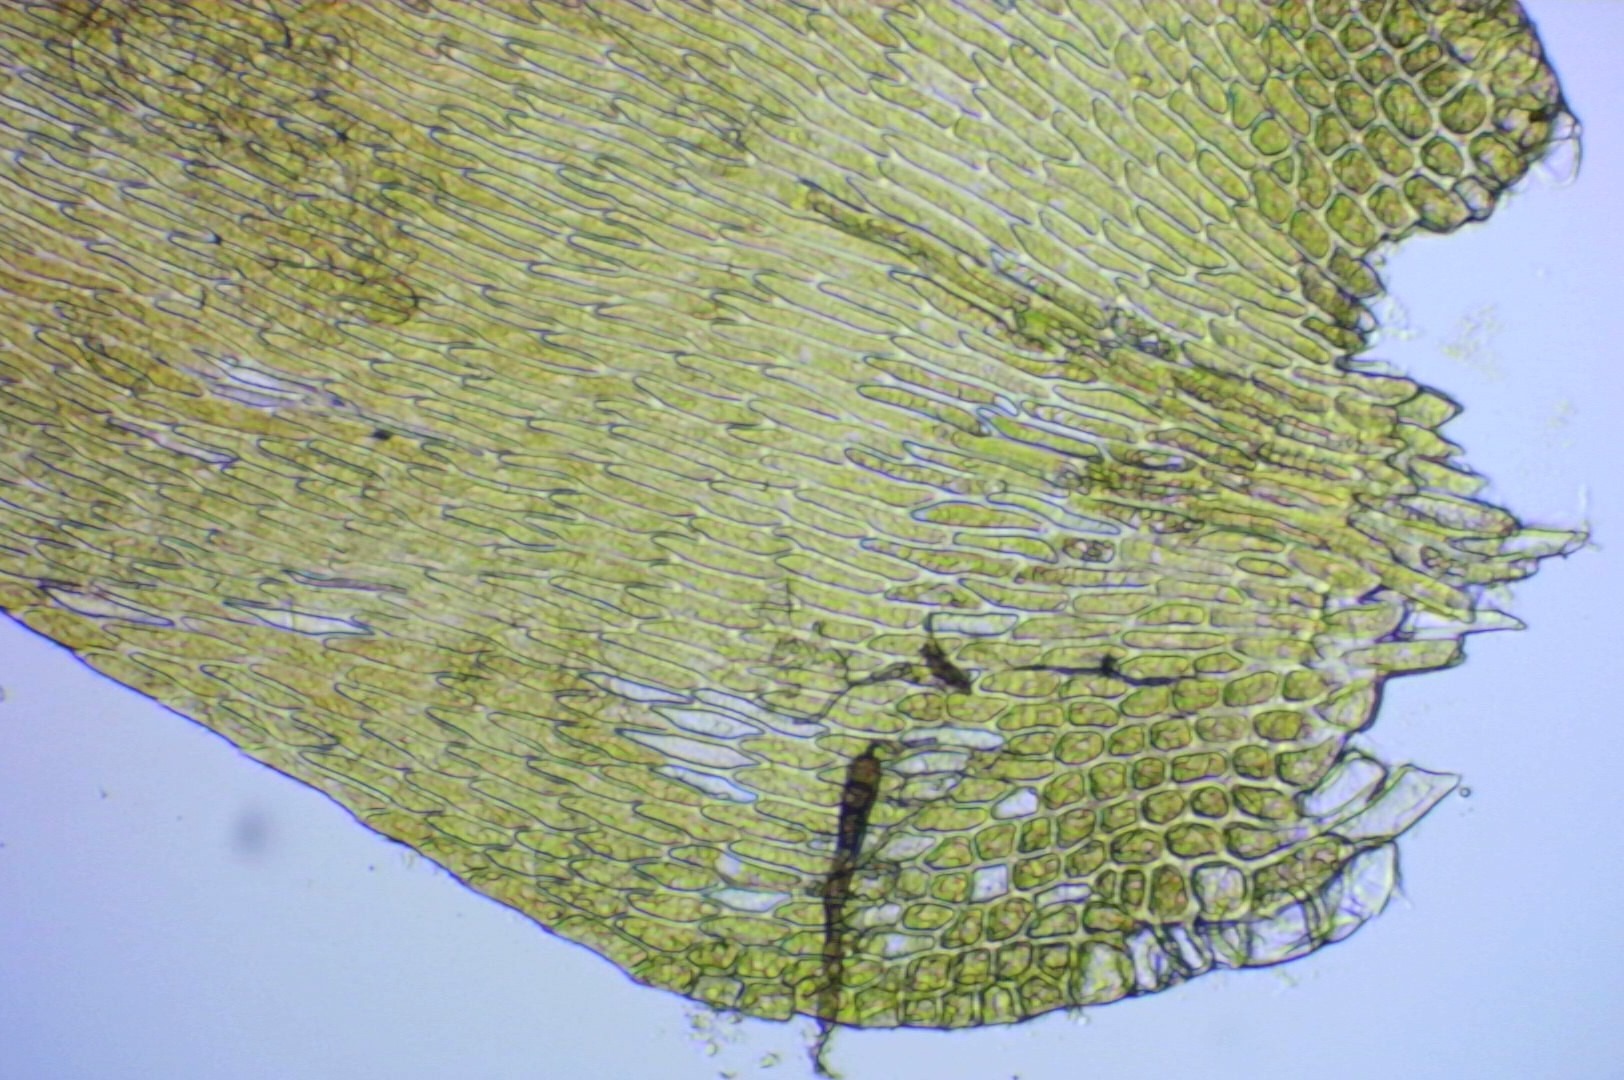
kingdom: Plantae
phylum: Bryophyta
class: Bryopsida
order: Hypnales
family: Pylaisiaceae
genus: Pylaisia
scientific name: Pylaisia polyantha
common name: Mangefrugtet aspemos
